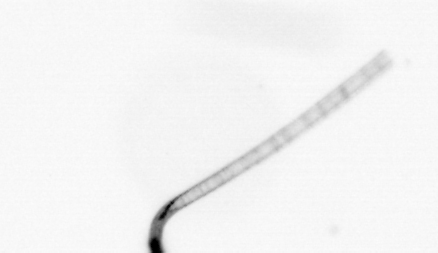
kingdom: Chromista
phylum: Ochrophyta
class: Bacillariophyceae
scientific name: Bacillariophyceae
